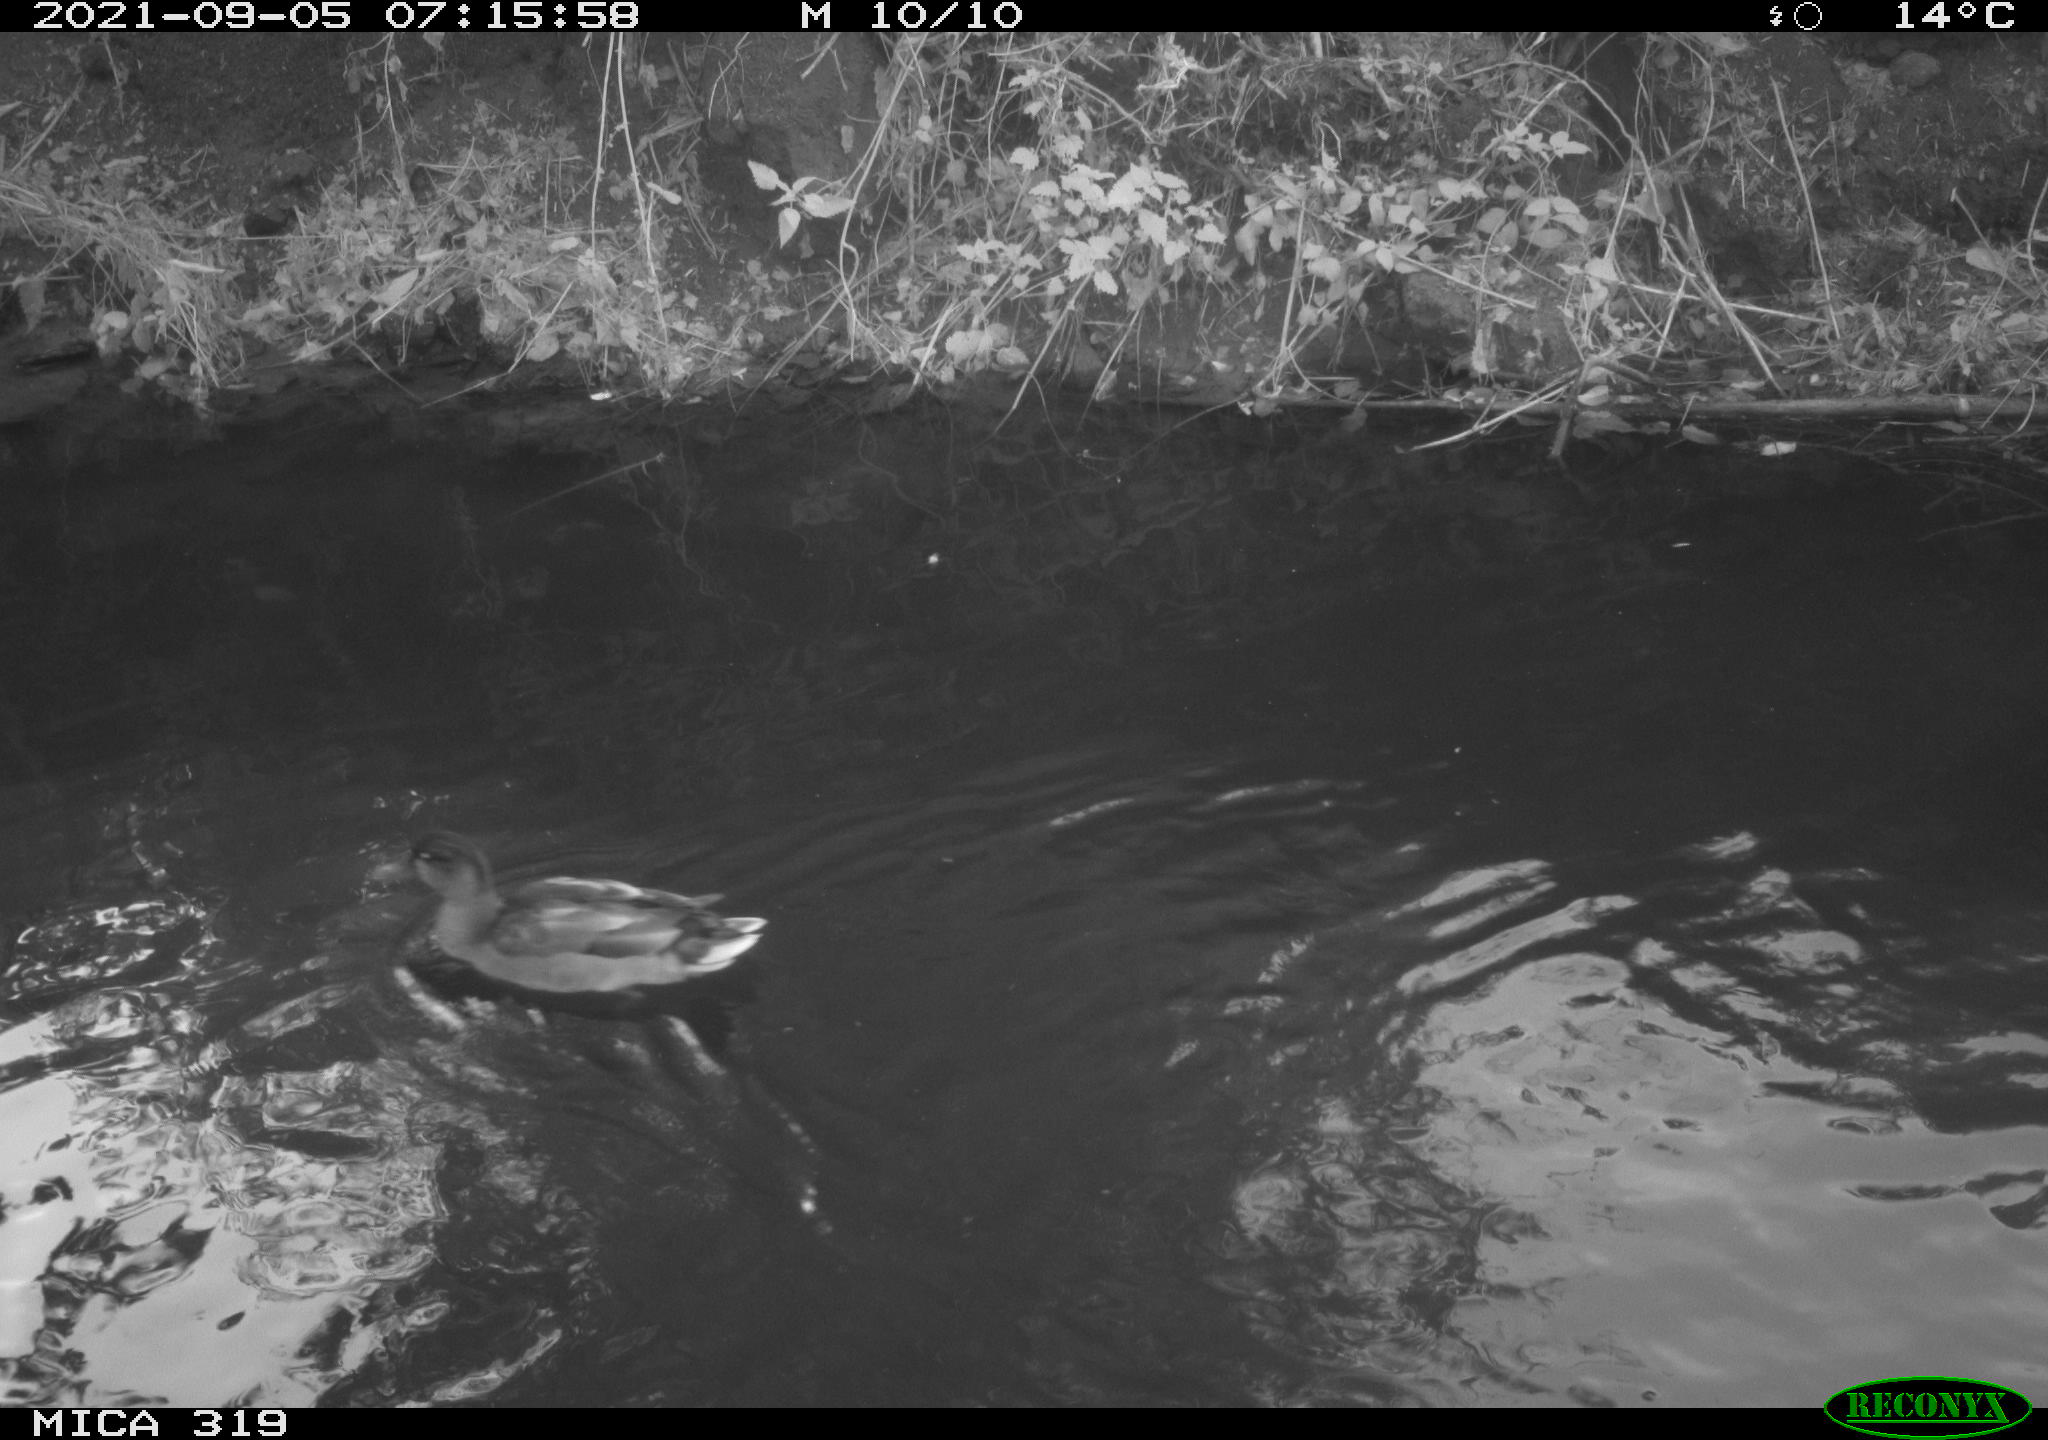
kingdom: Animalia
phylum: Chordata
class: Aves
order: Anseriformes
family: Anatidae
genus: Anas
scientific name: Anas platyrhynchos
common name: Mallard
